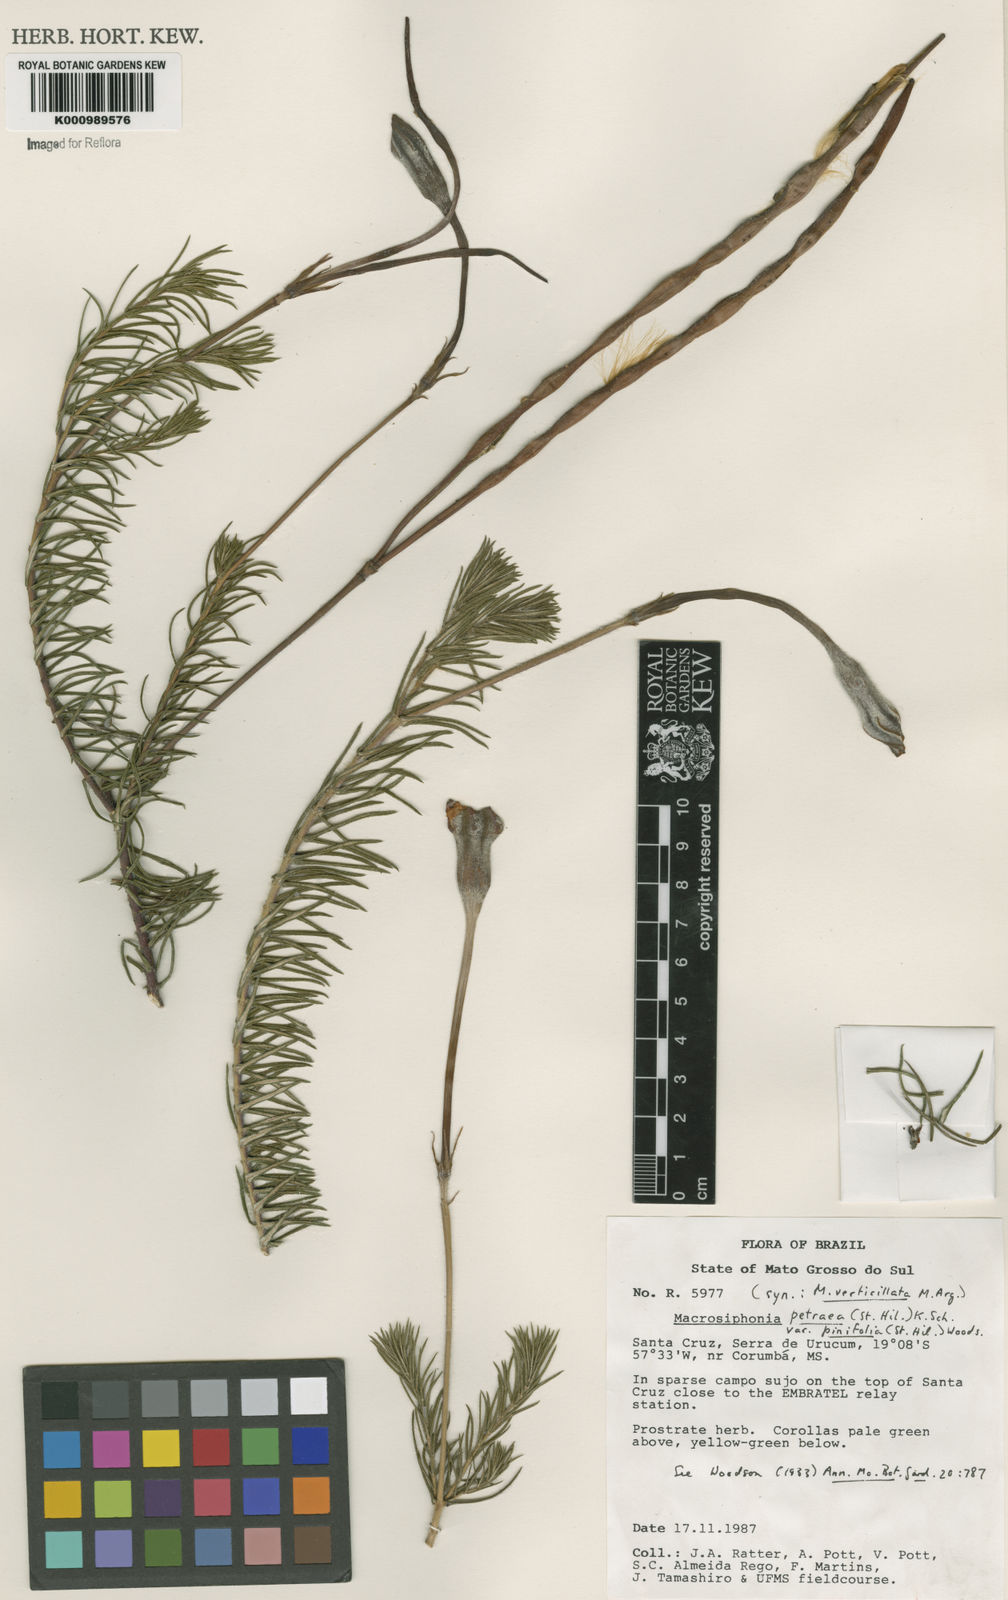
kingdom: Plantae
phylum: Tracheophyta
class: Magnoliopsida
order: Gentianales
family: Apocynaceae
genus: Mandevilla
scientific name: Mandevilla petraea
